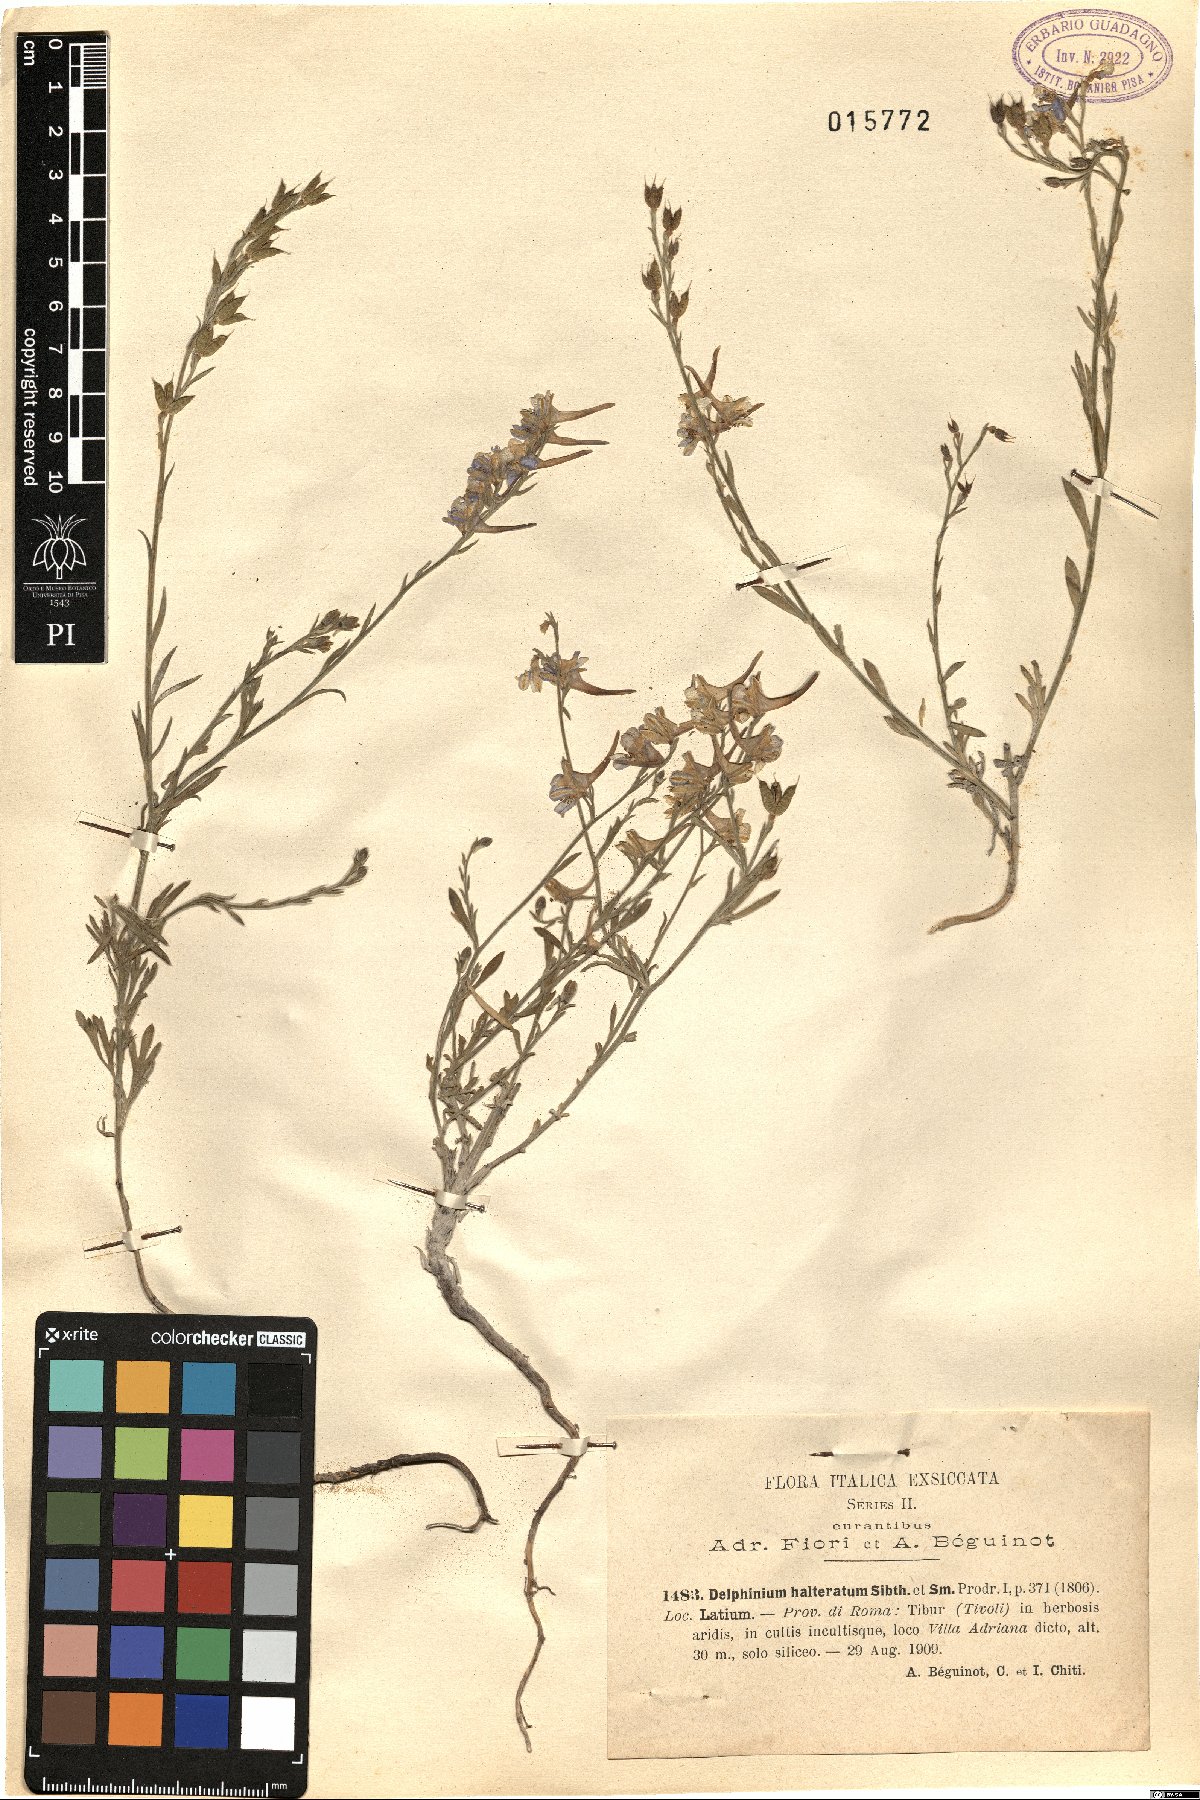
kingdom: Plantae
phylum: Tracheophyta
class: Magnoliopsida
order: Ranunculales
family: Ranunculaceae
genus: Delphinium
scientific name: Delphinium halteratum
